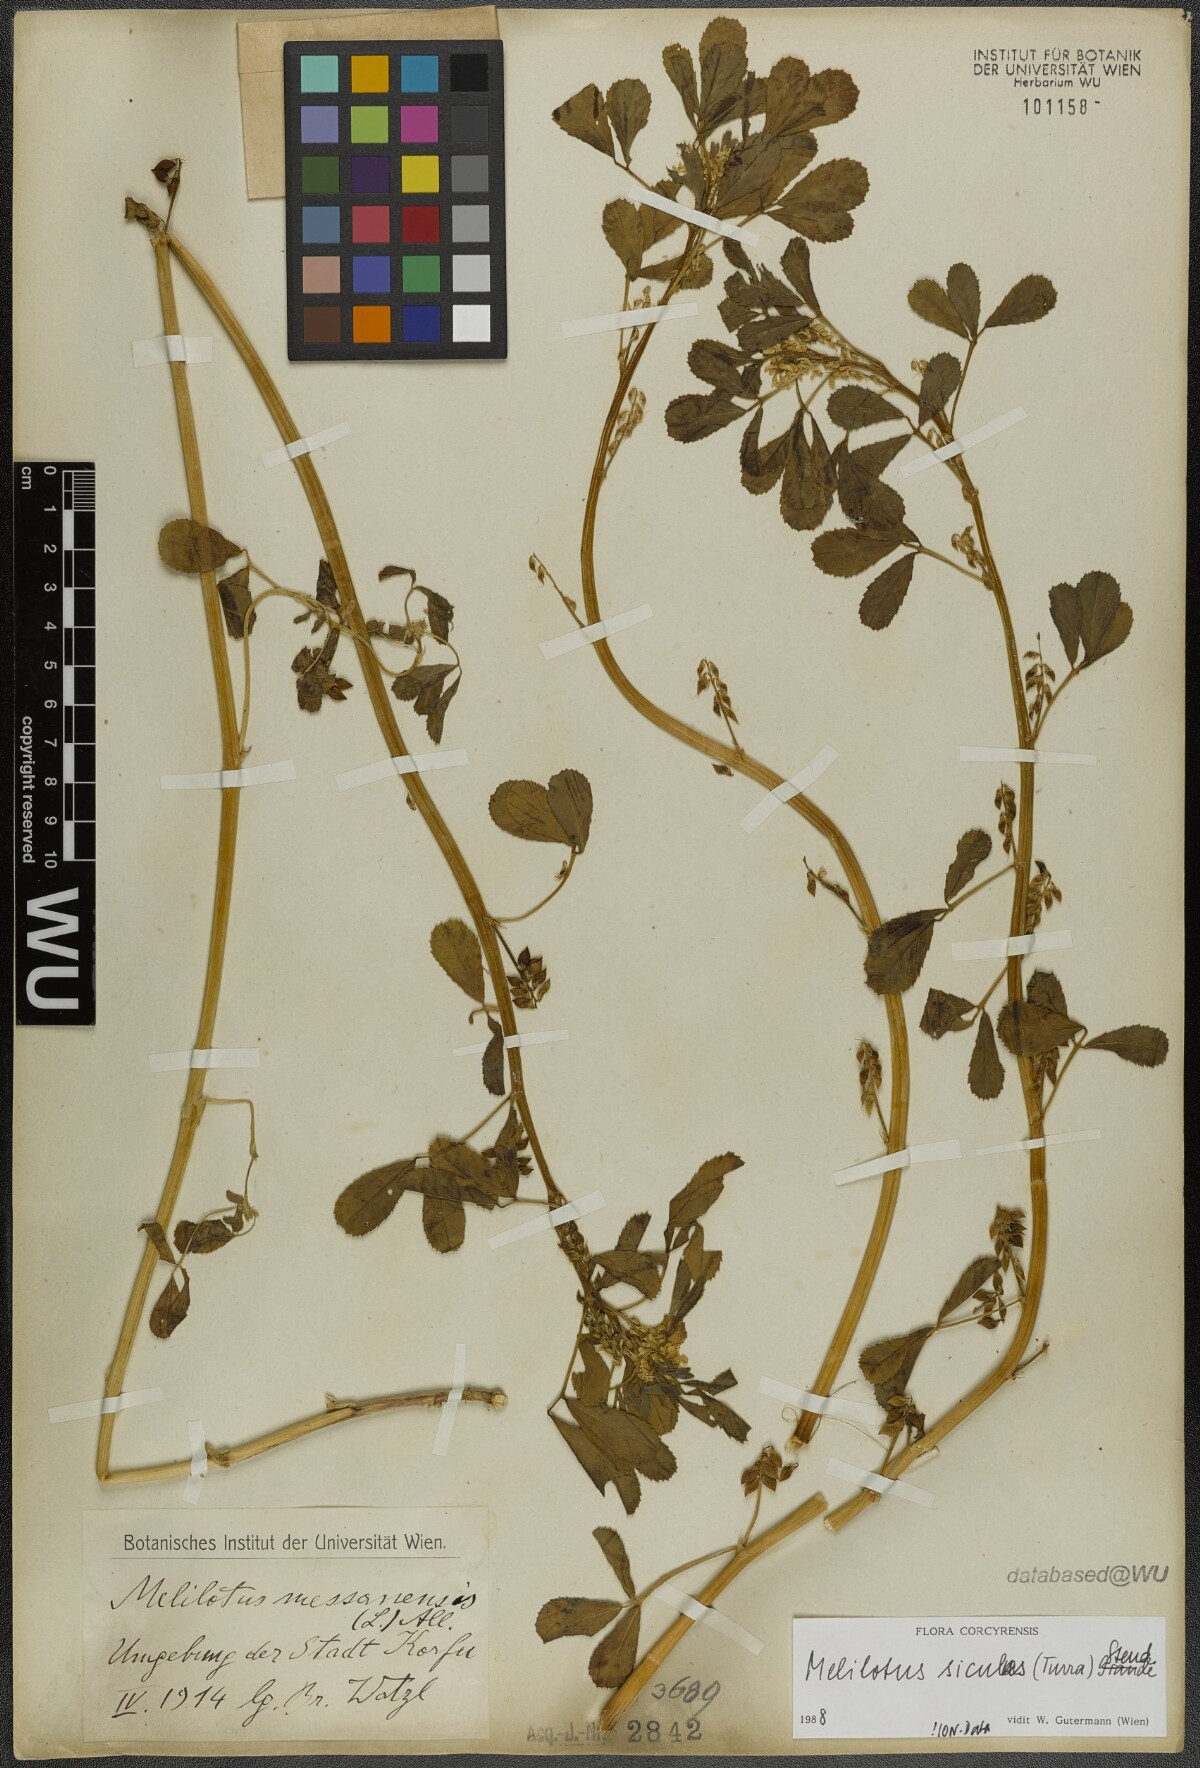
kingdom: Plantae
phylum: Tracheophyta
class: Magnoliopsida
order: Fabales
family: Fabaceae
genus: Melilotus
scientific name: Melilotus siculus
